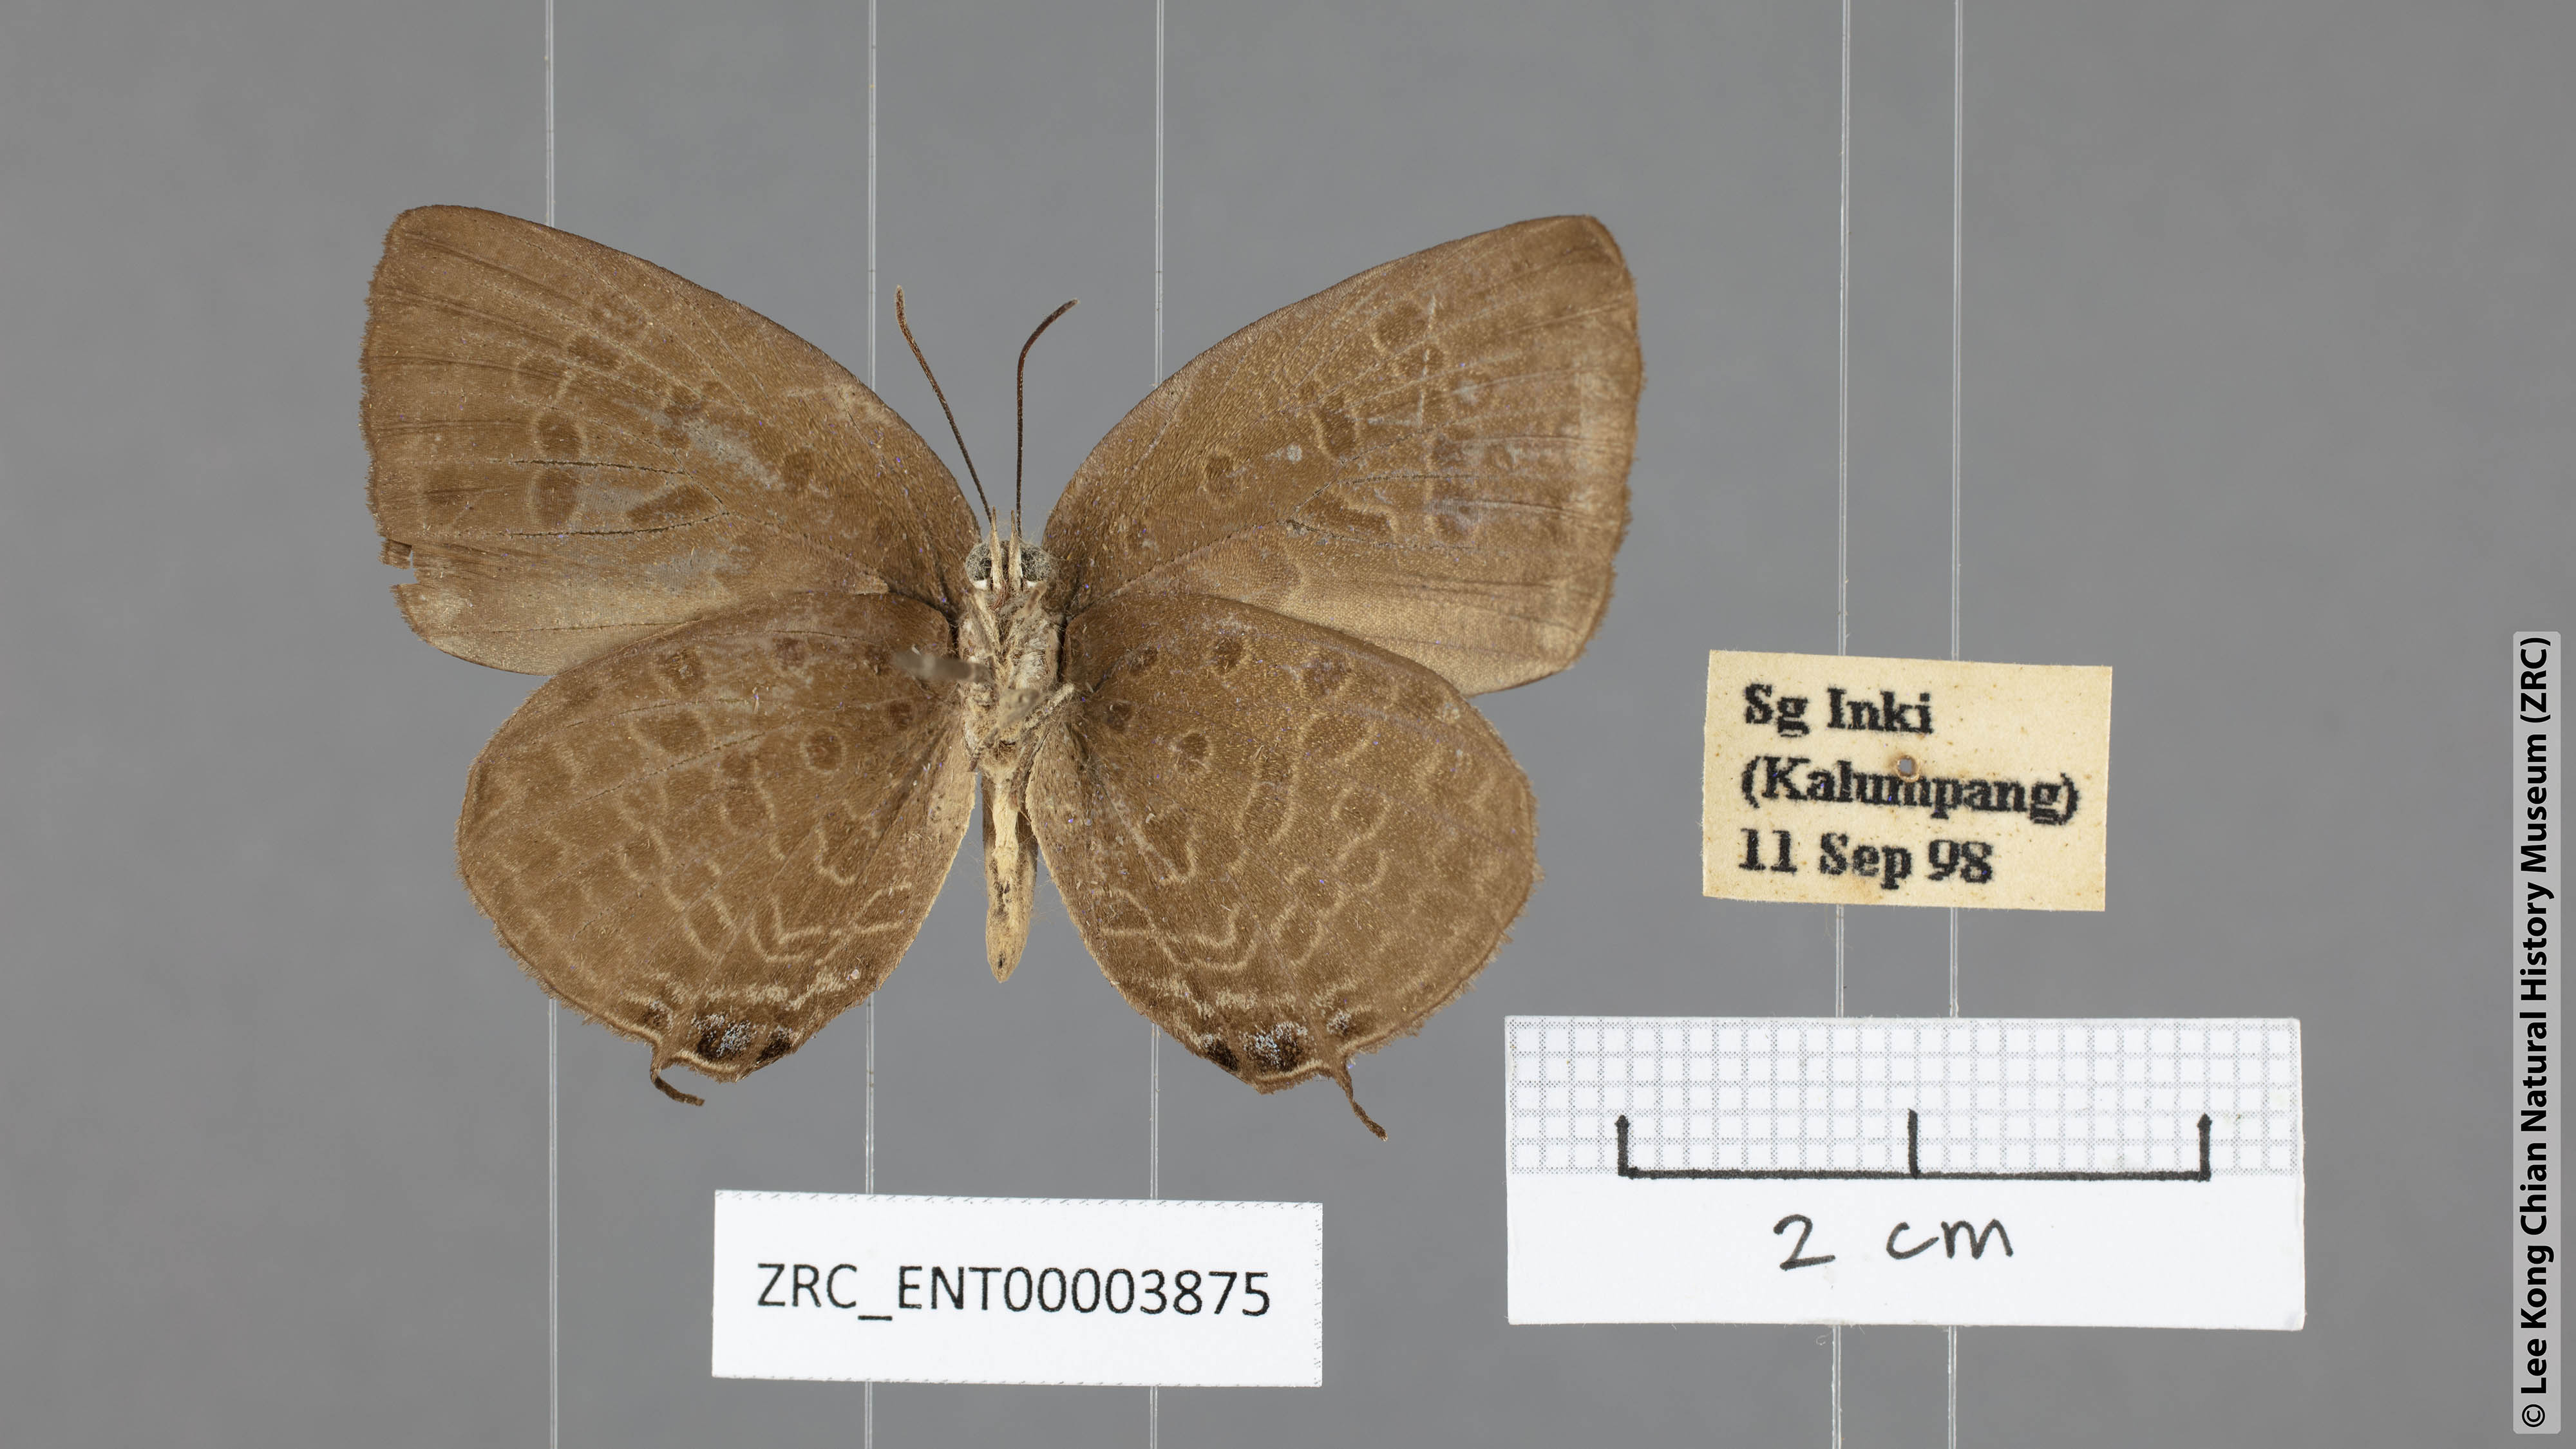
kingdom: Animalia
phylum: Arthropoda
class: Insecta
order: Lepidoptera
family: Lycaenidae
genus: Arhopala
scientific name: Arhopala atosia
